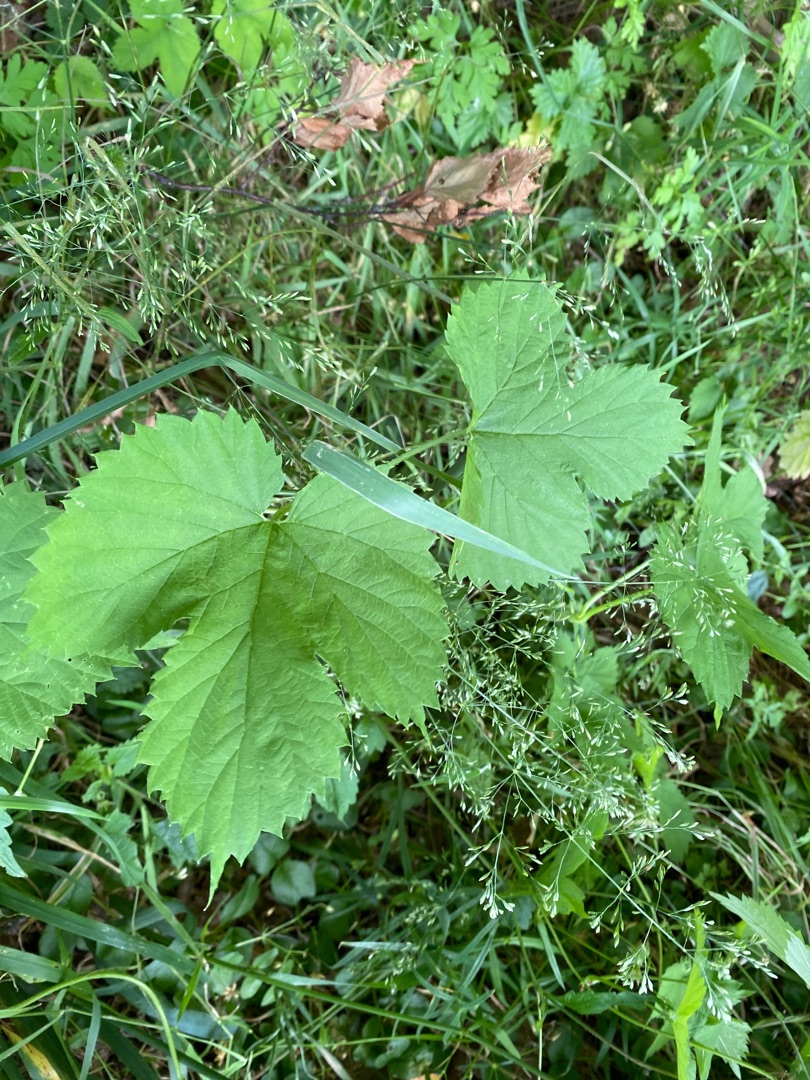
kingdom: Plantae
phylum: Tracheophyta
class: Magnoliopsida
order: Rosales
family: Cannabaceae
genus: Humulus
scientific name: Humulus lupulus
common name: Humle
